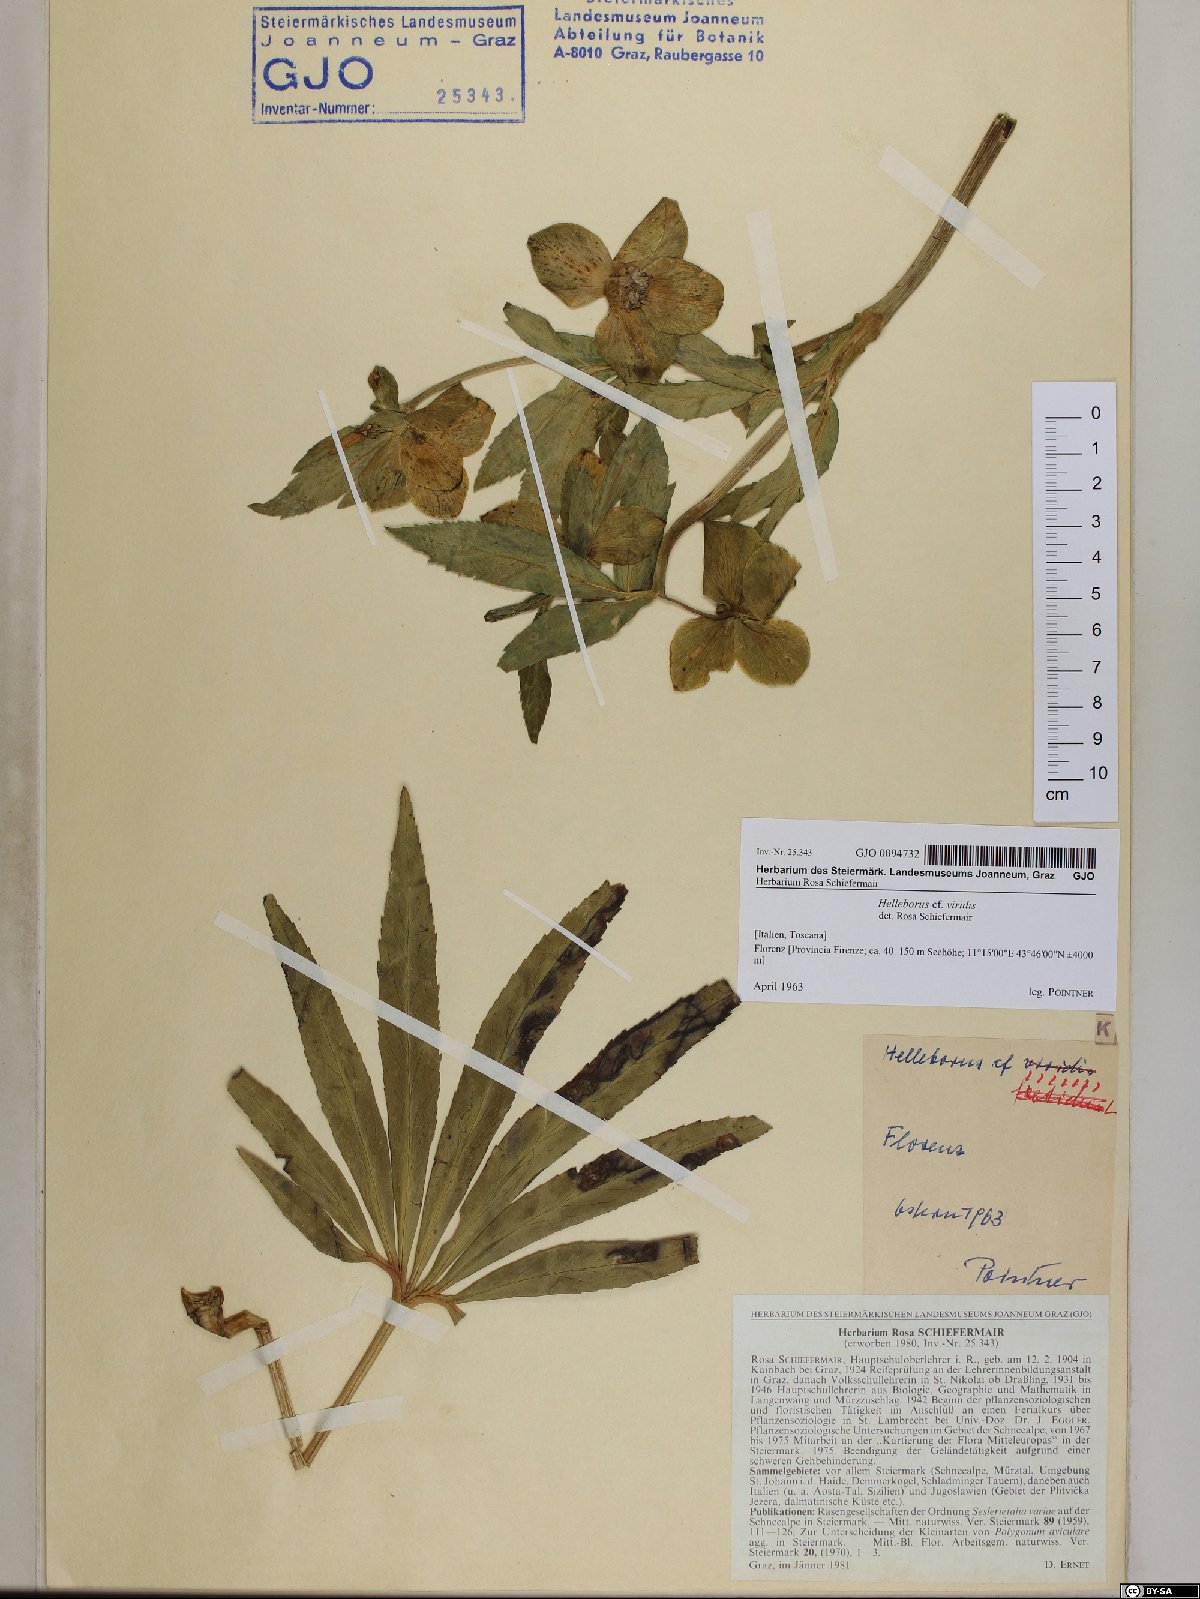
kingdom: Plantae
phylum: Tracheophyta
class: Magnoliopsida
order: Ranunculales
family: Ranunculaceae
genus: Helleborus
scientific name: Helleborus viridis
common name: Green hellebore
